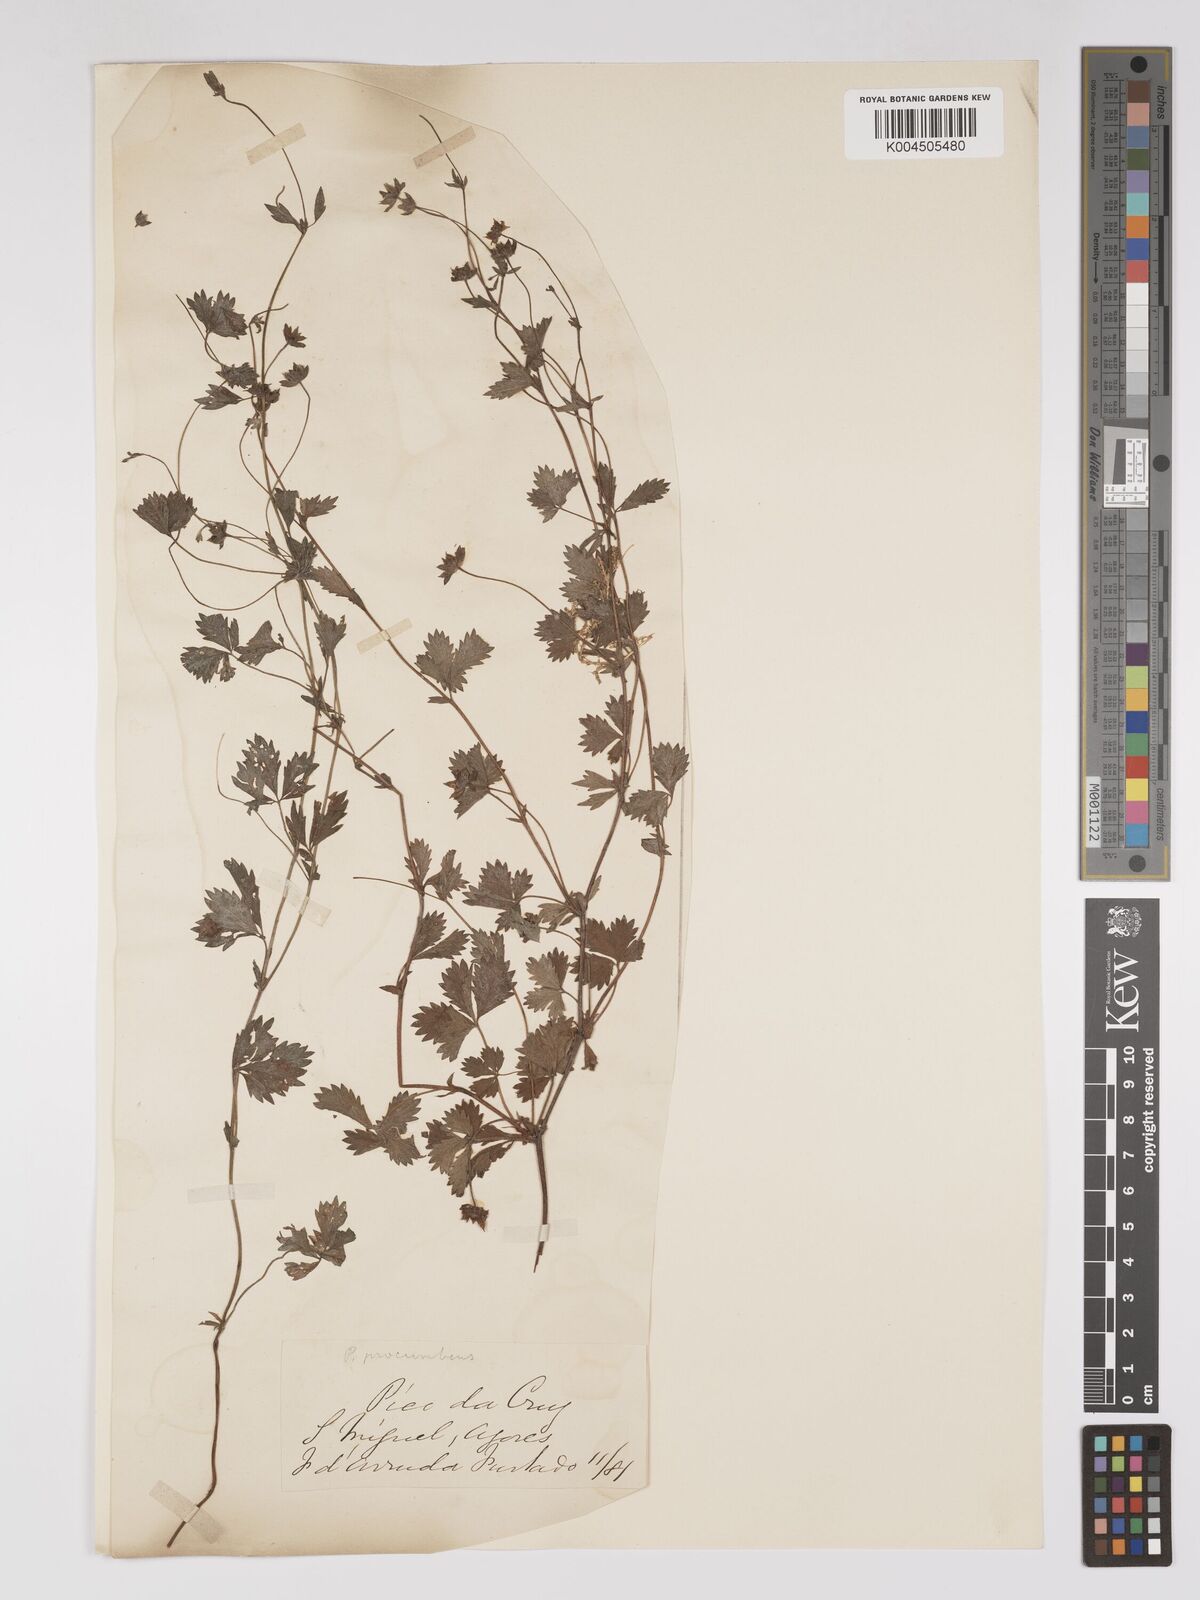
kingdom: Plantae
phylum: Tracheophyta
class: Magnoliopsida
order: Rosales
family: Rosaceae
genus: Potentilla
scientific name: Potentilla
